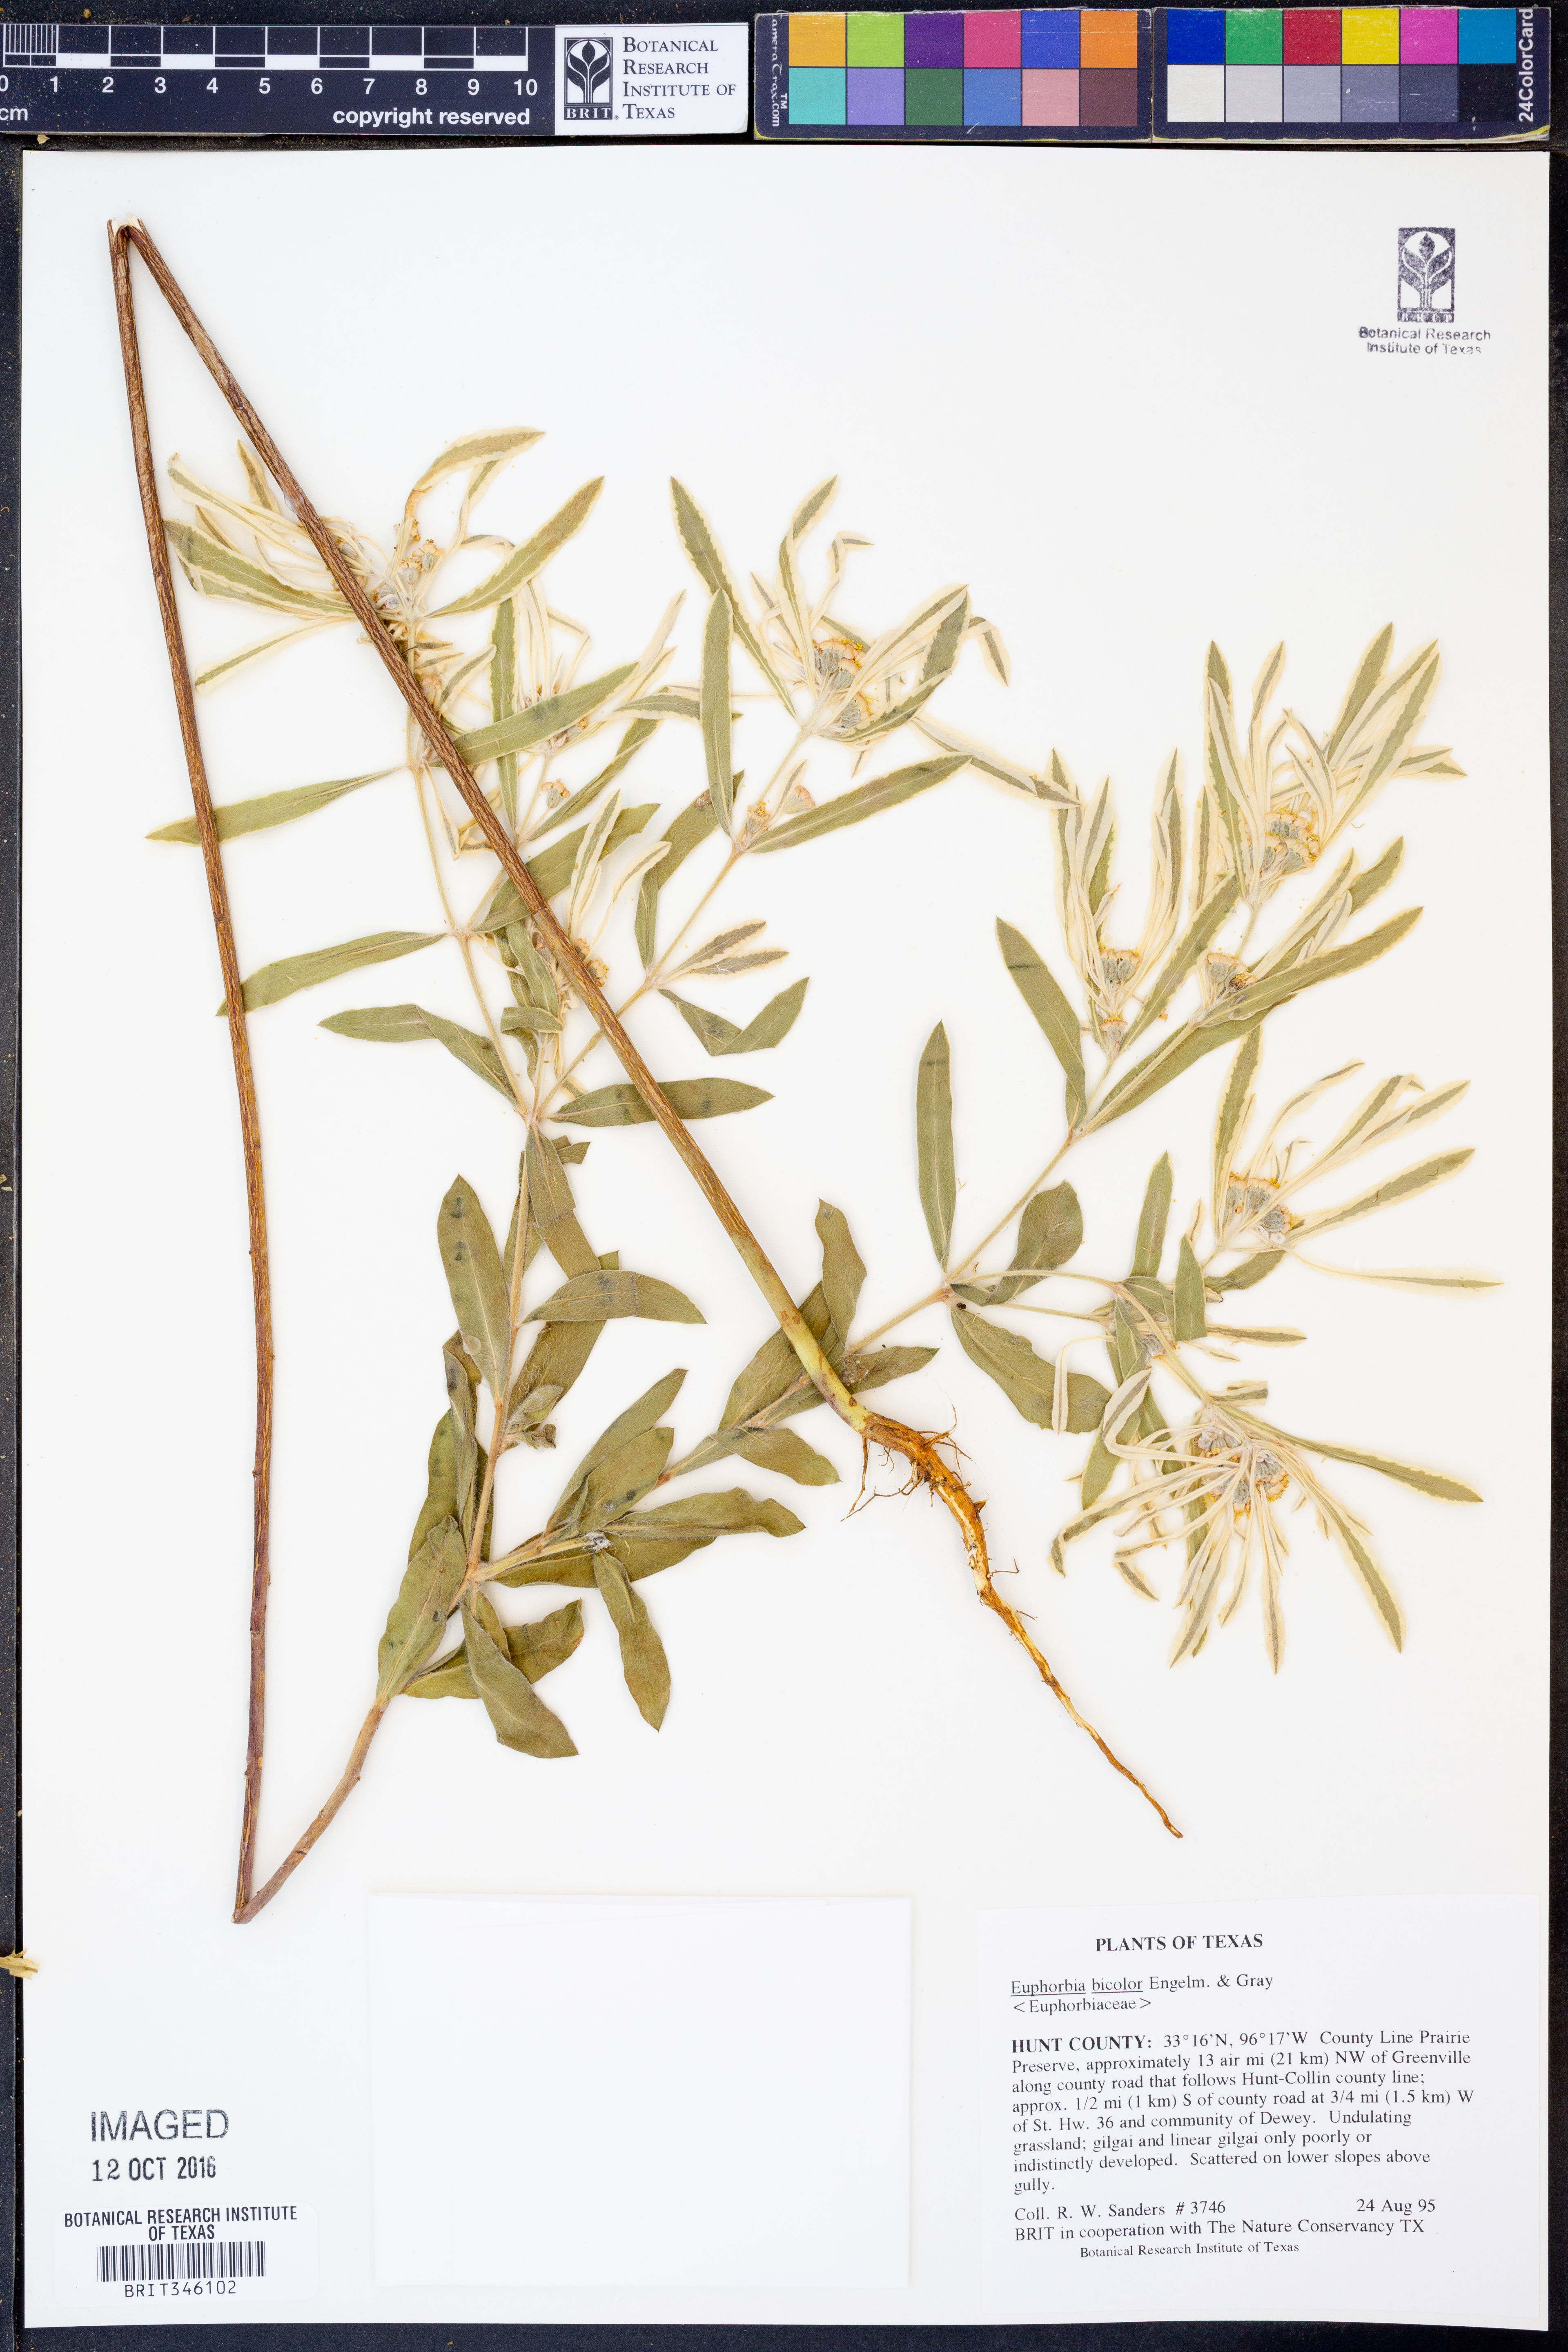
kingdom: Plantae
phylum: Tracheophyta
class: Magnoliopsida
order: Malpighiales
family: Euphorbiaceae
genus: Euphorbia
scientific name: Euphorbia bicolor
